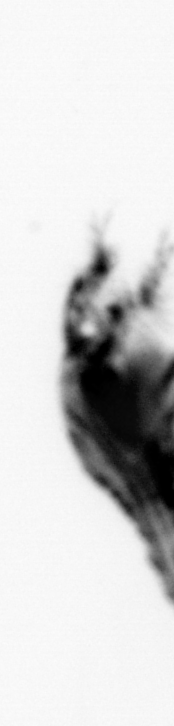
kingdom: Animalia
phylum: Annelida
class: Polychaeta
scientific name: Polychaeta
